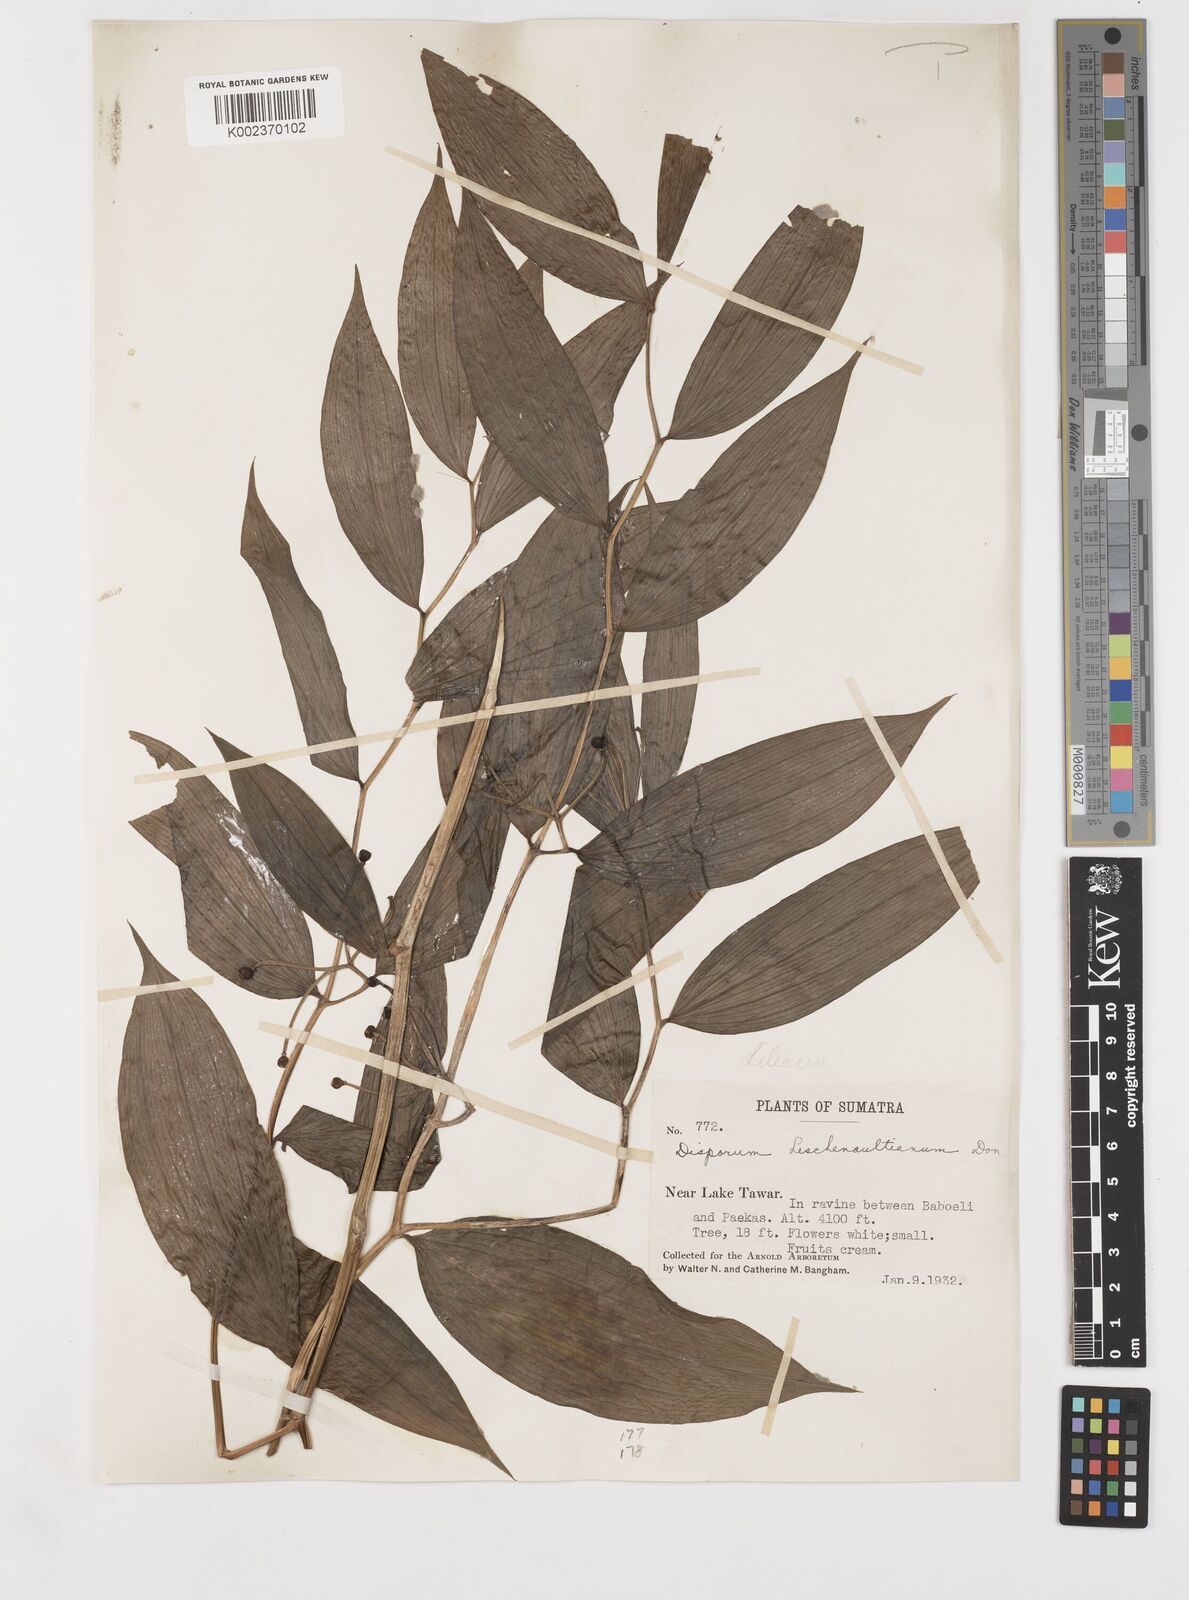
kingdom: Plantae
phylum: Tracheophyta
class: Liliopsida
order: Liliales
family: Colchicaceae
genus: Disporum
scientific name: Disporum cantoniense
